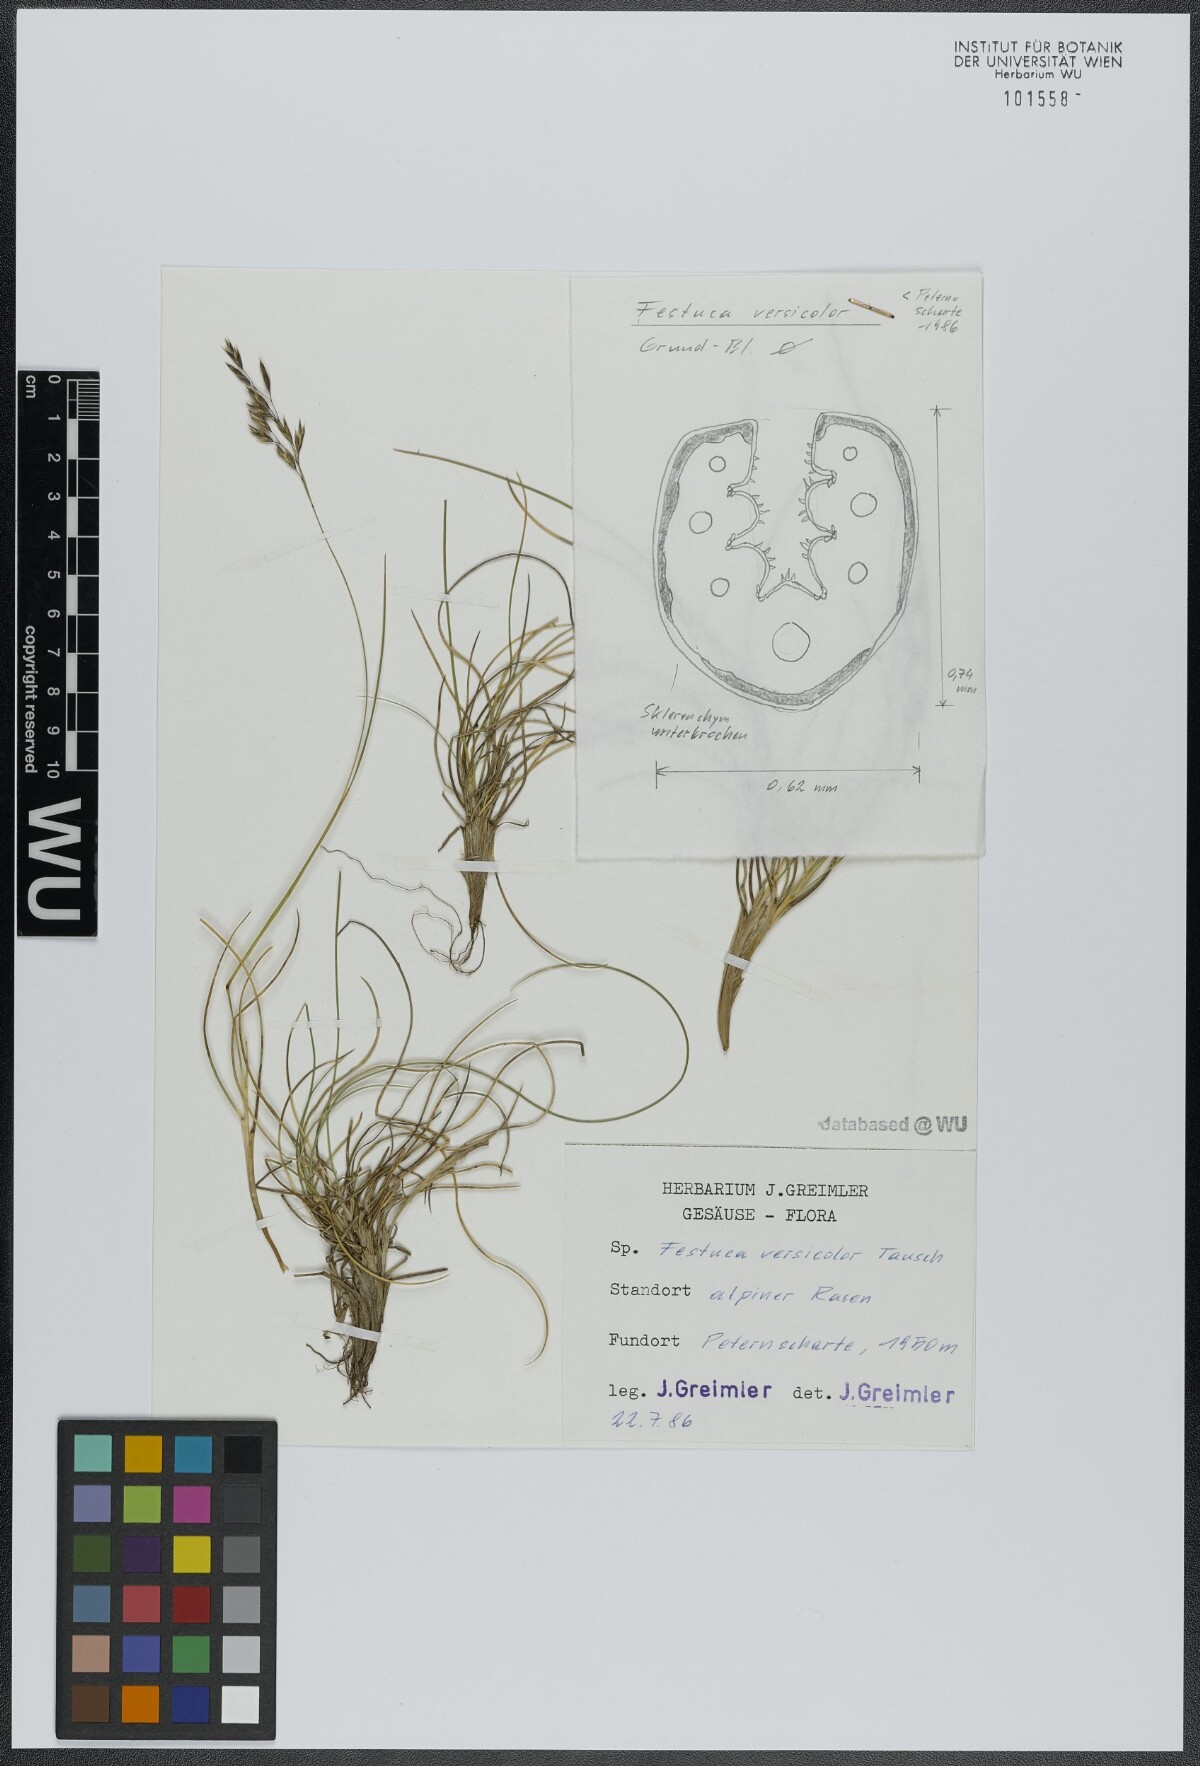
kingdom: Plantae
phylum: Tracheophyta
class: Liliopsida
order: Poales
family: Poaceae
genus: Festuca
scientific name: Festuca versicolor
